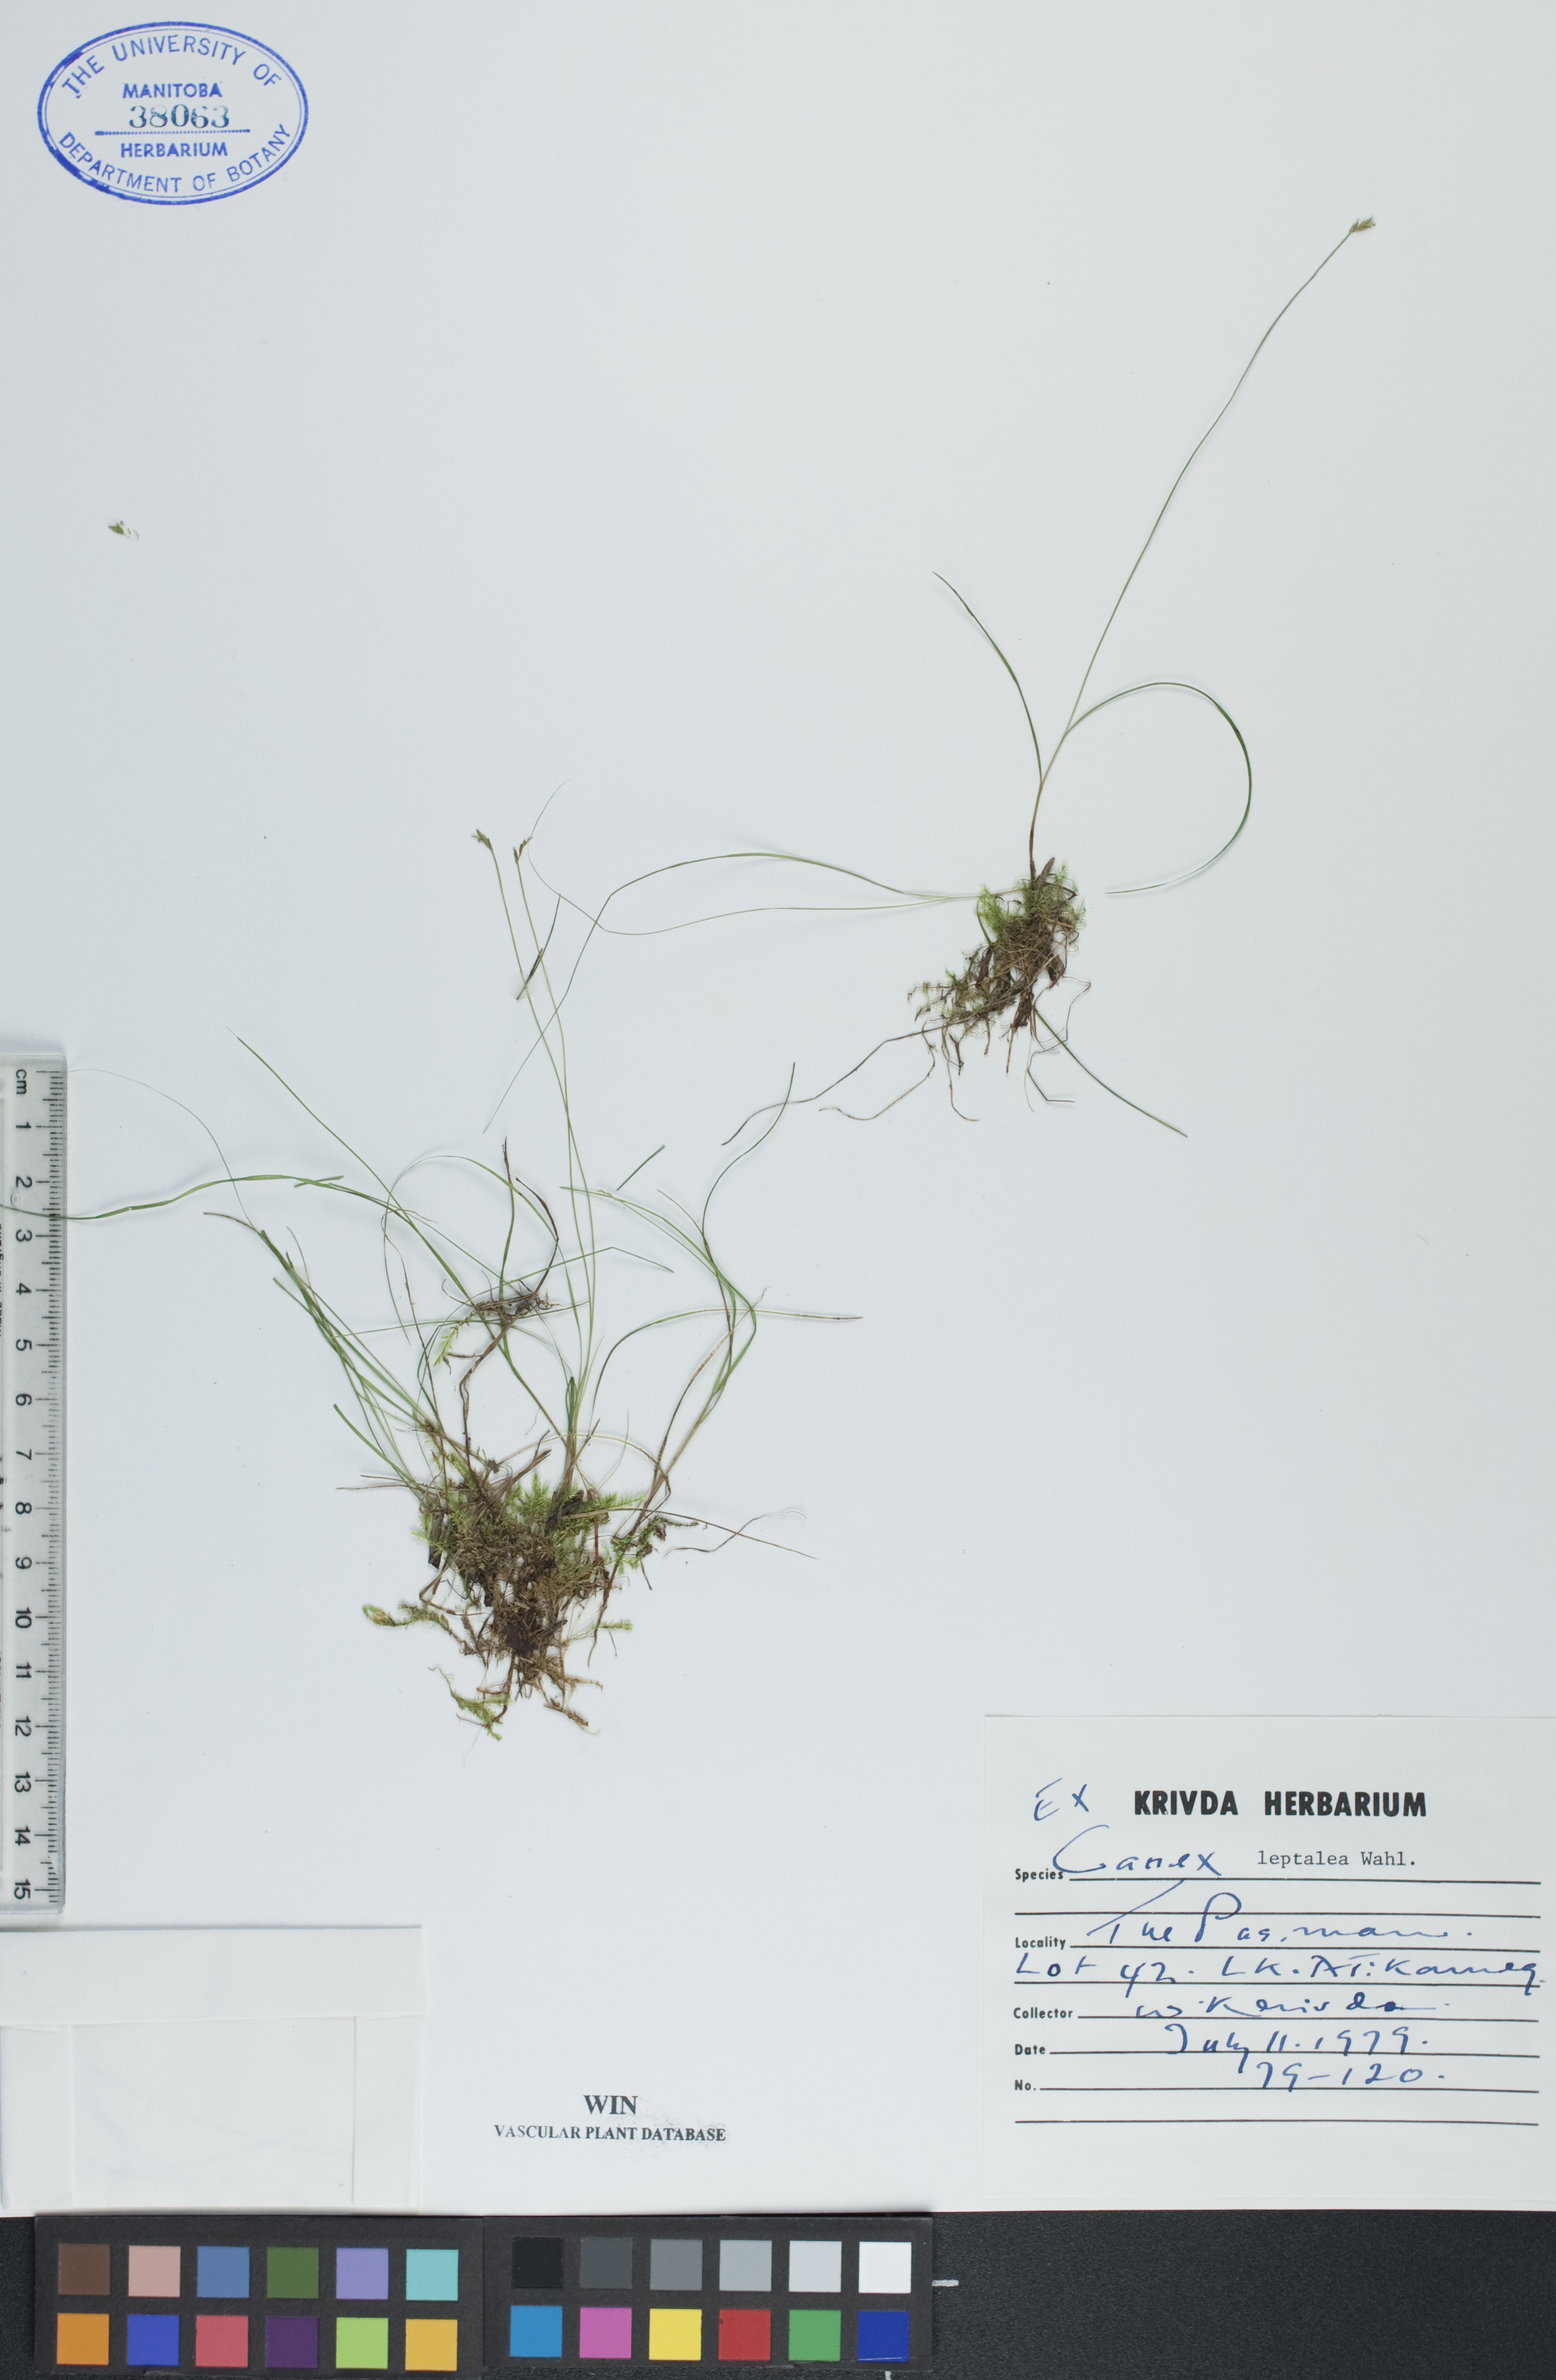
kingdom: Plantae
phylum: Tracheophyta
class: Liliopsida
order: Poales
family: Cyperaceae
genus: Carex
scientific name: Carex leptalea
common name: Bristly-stalked sedge
